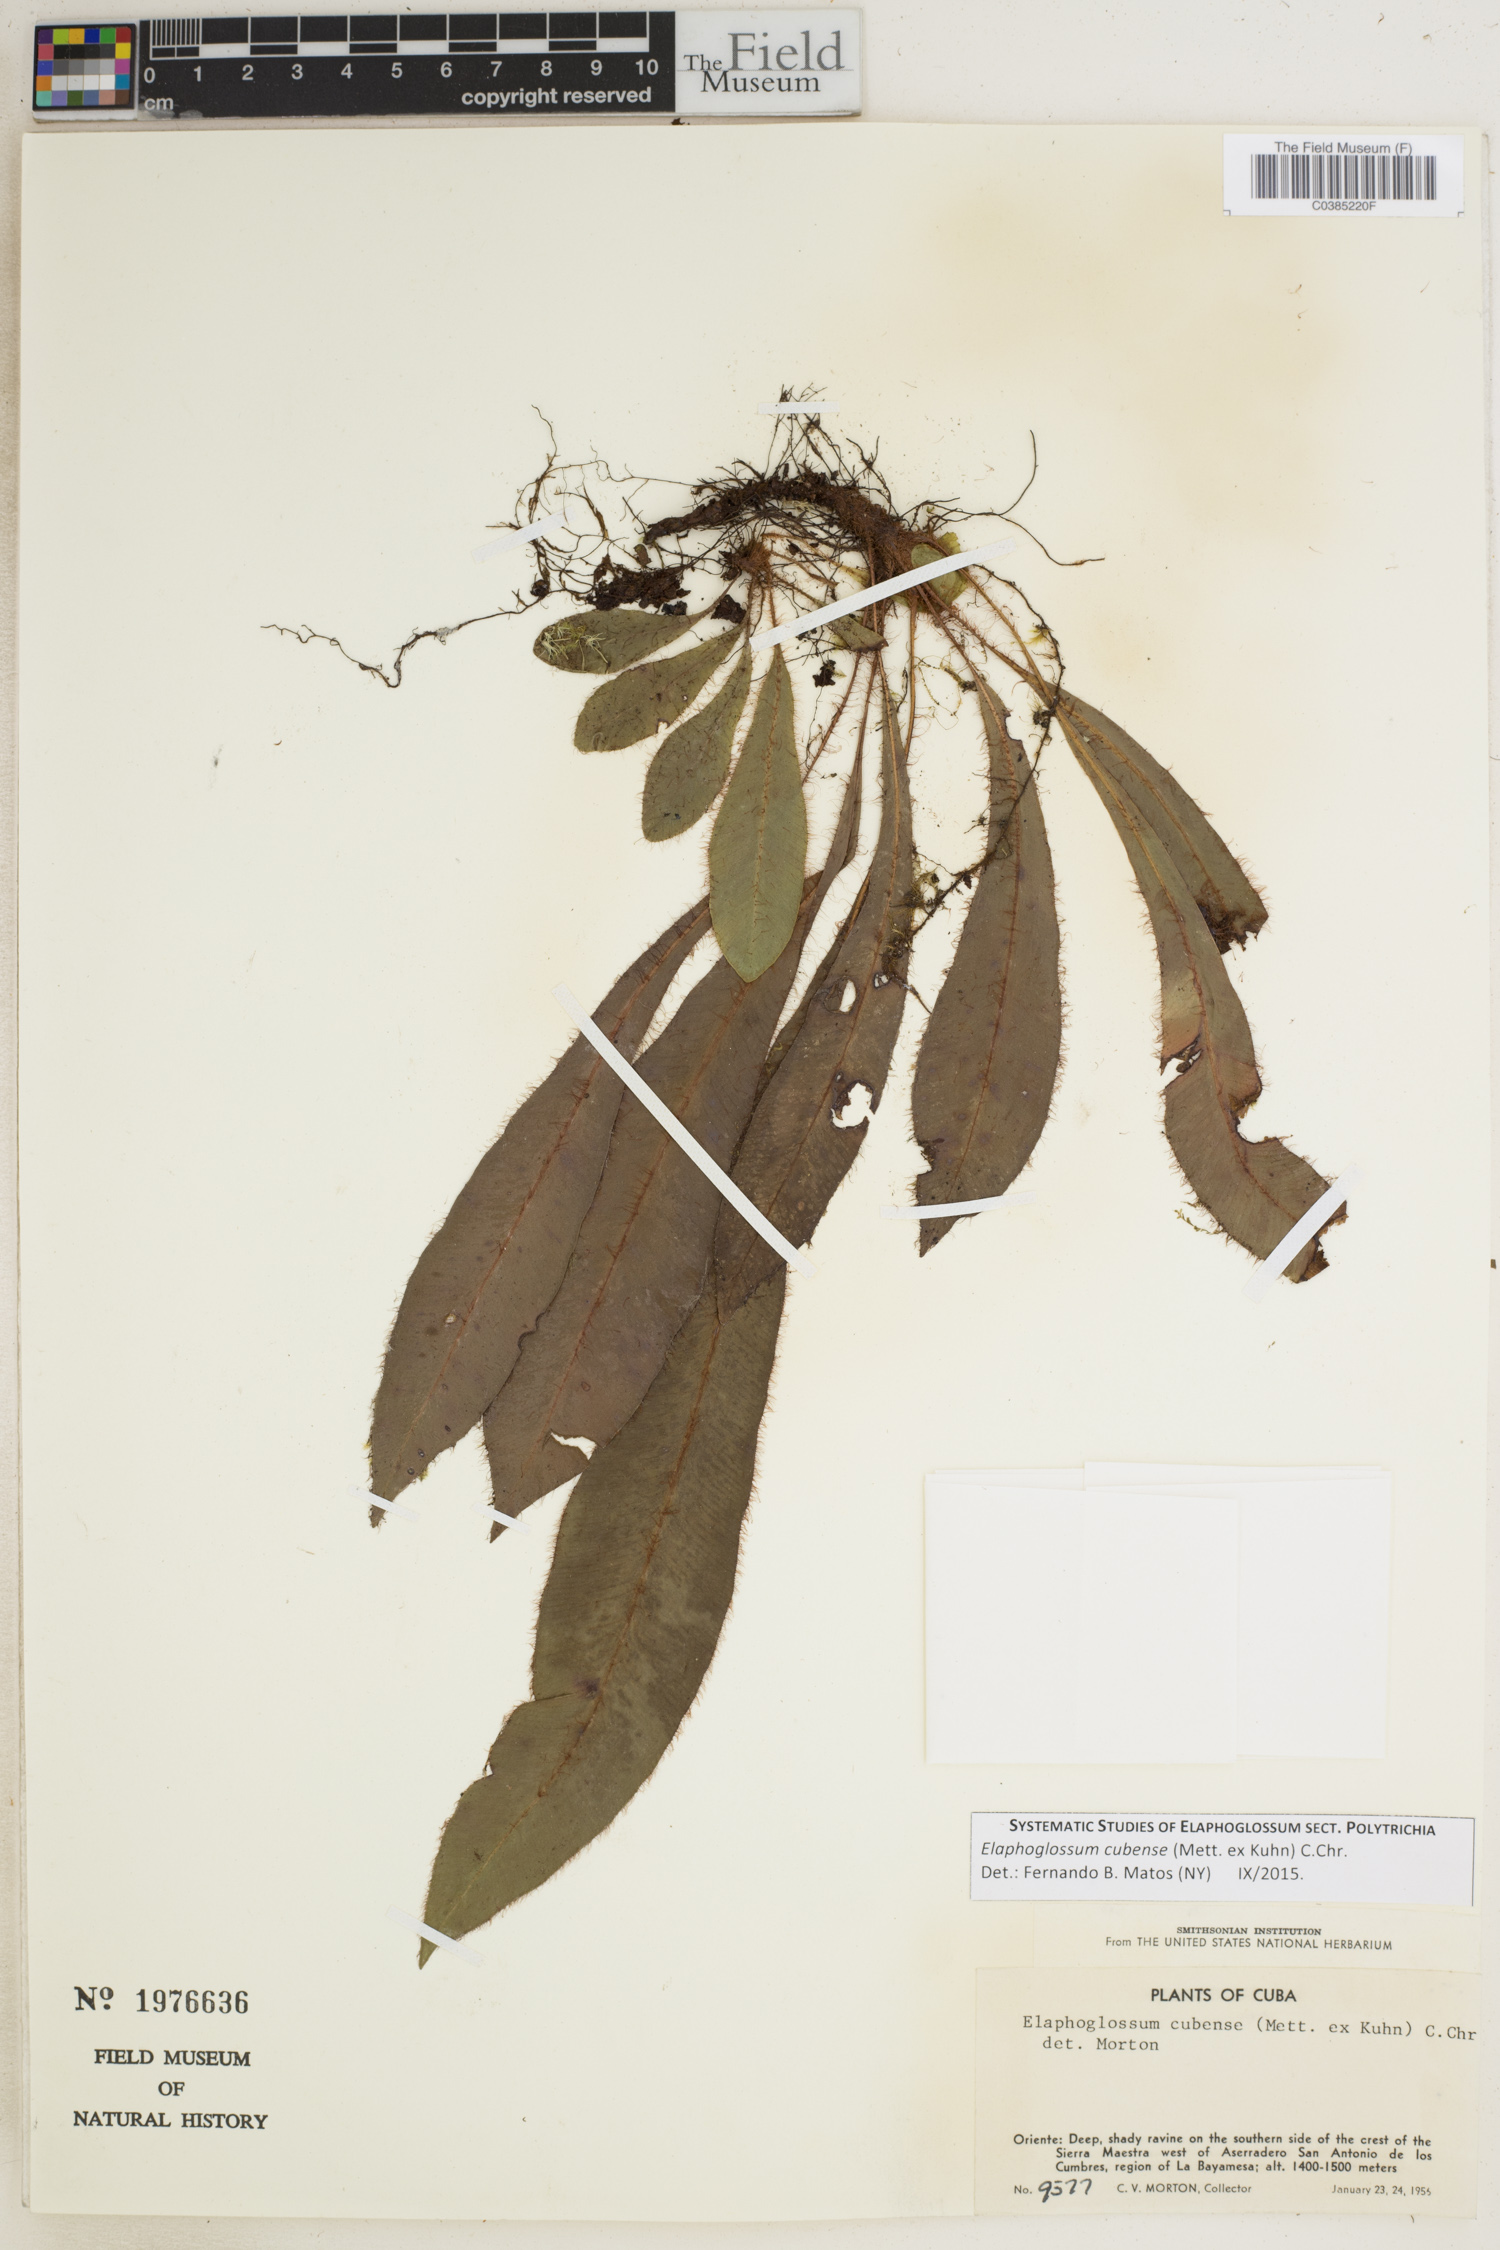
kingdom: Plantae
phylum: Tracheophyta
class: Polypodiopsida
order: Polypodiales
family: Dryopteridaceae
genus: Elaphoglossum
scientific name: Elaphoglossum cubense
